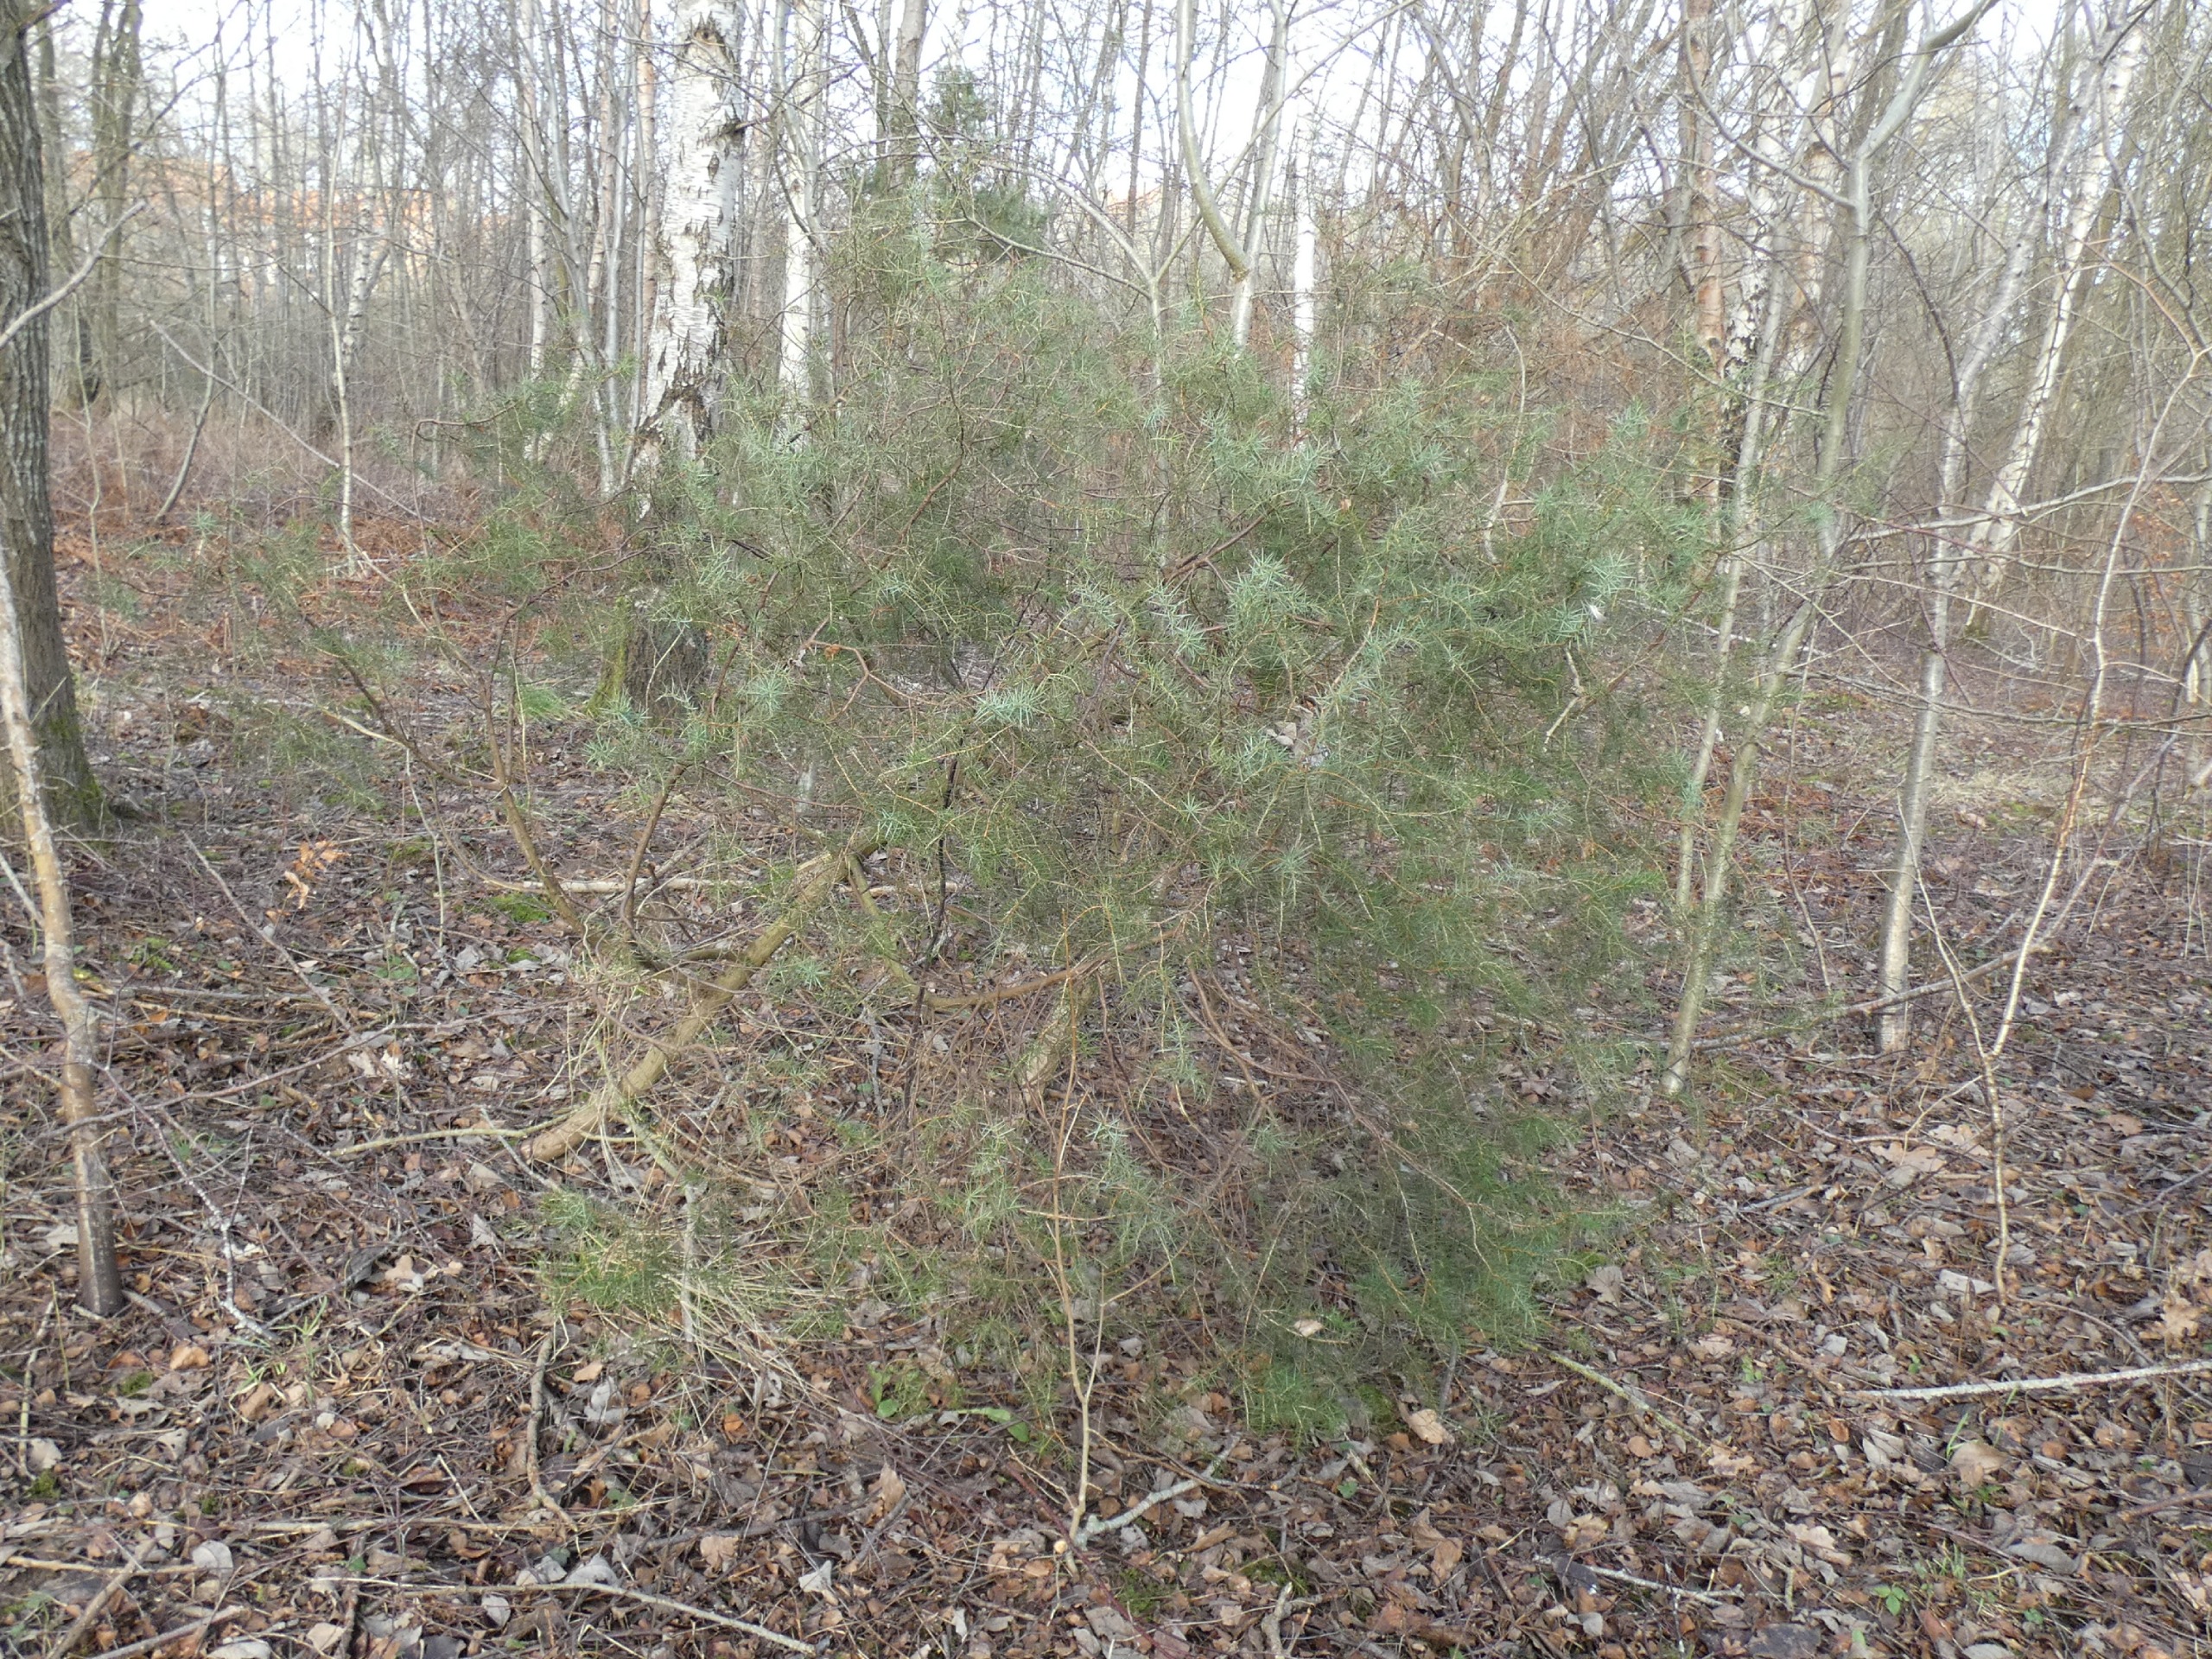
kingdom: Plantae
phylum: Tracheophyta
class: Pinopsida
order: Pinales
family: Cupressaceae
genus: Juniperus
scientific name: Juniperus communis
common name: Almindelig ene
